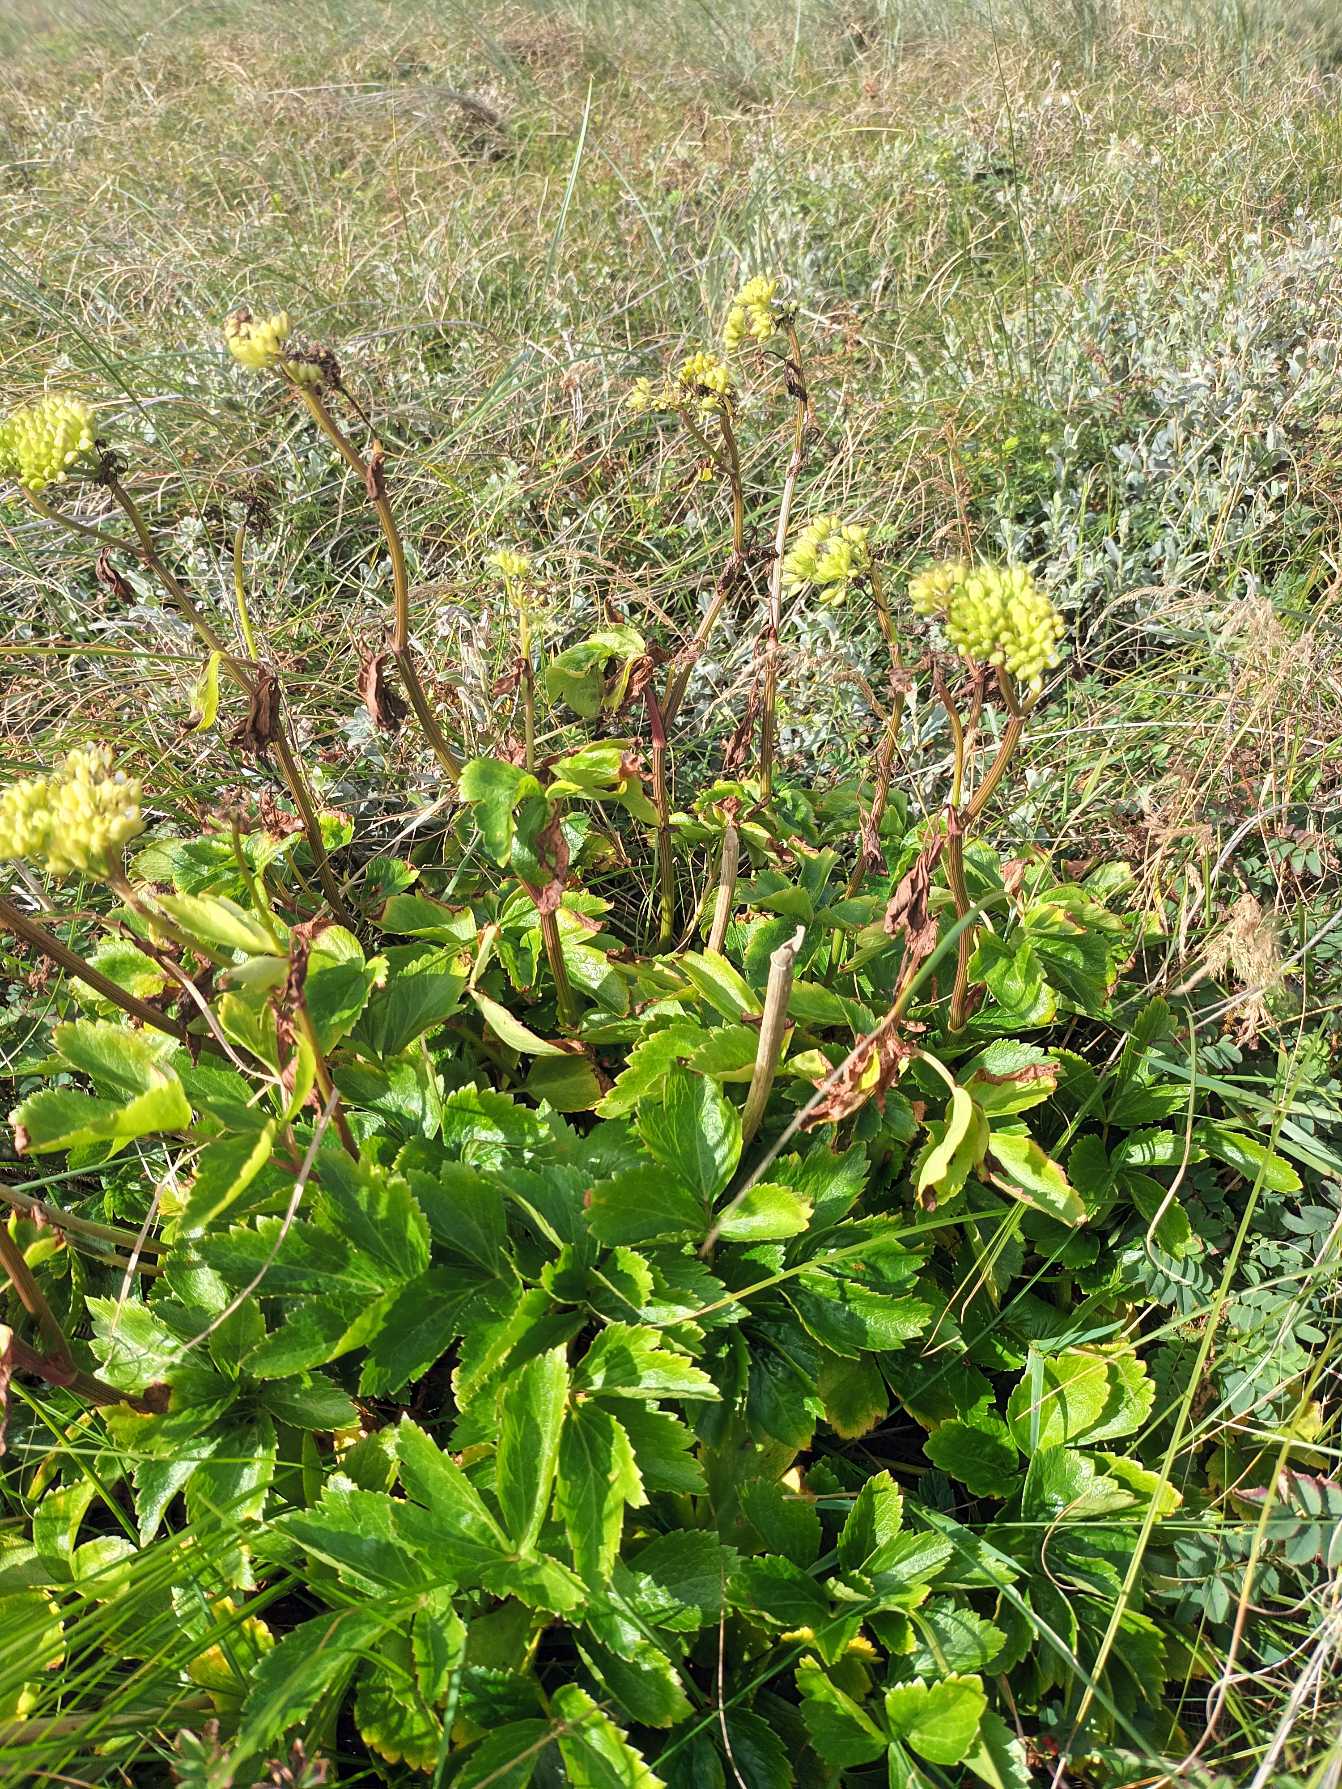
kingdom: Plantae
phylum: Tracheophyta
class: Magnoliopsida
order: Apiales
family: Apiaceae
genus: Ligusticum
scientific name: Ligusticum scothicum
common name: Skotsk lostilk
